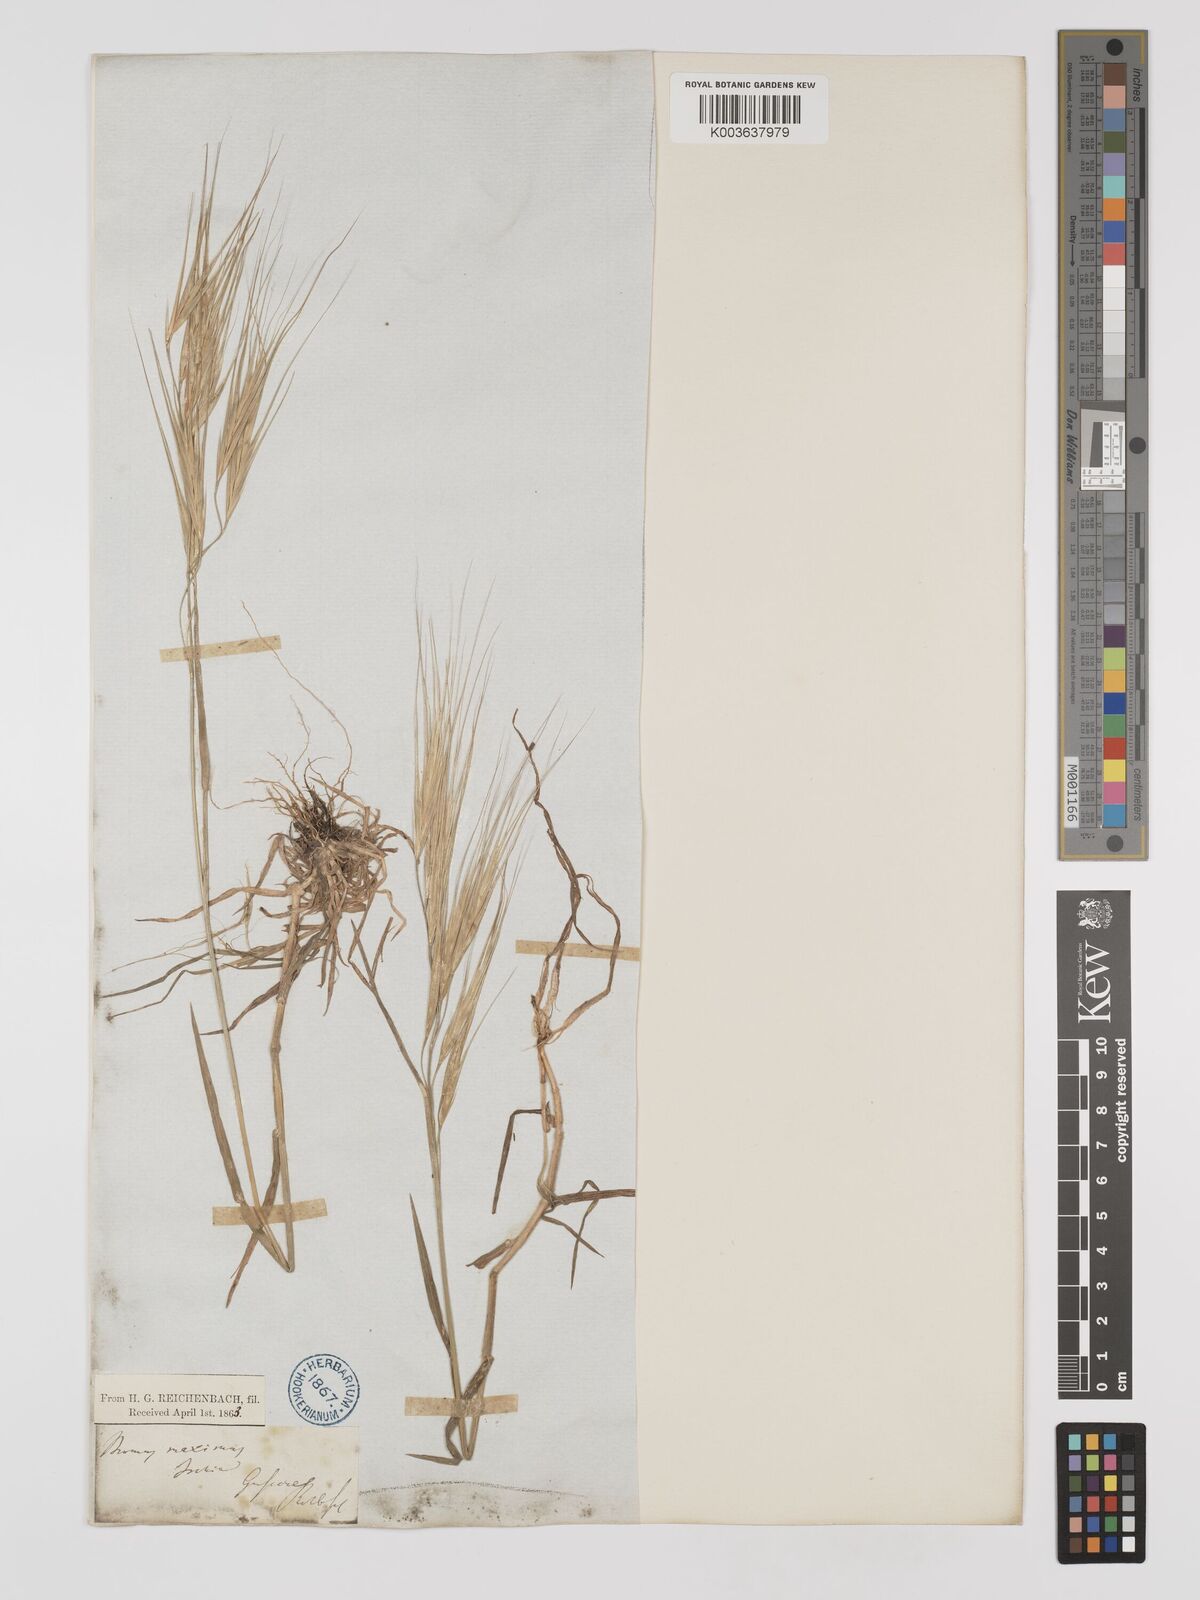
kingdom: Plantae
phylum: Tracheophyta
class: Liliopsida
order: Poales
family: Poaceae
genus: Bromus
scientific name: Bromus
